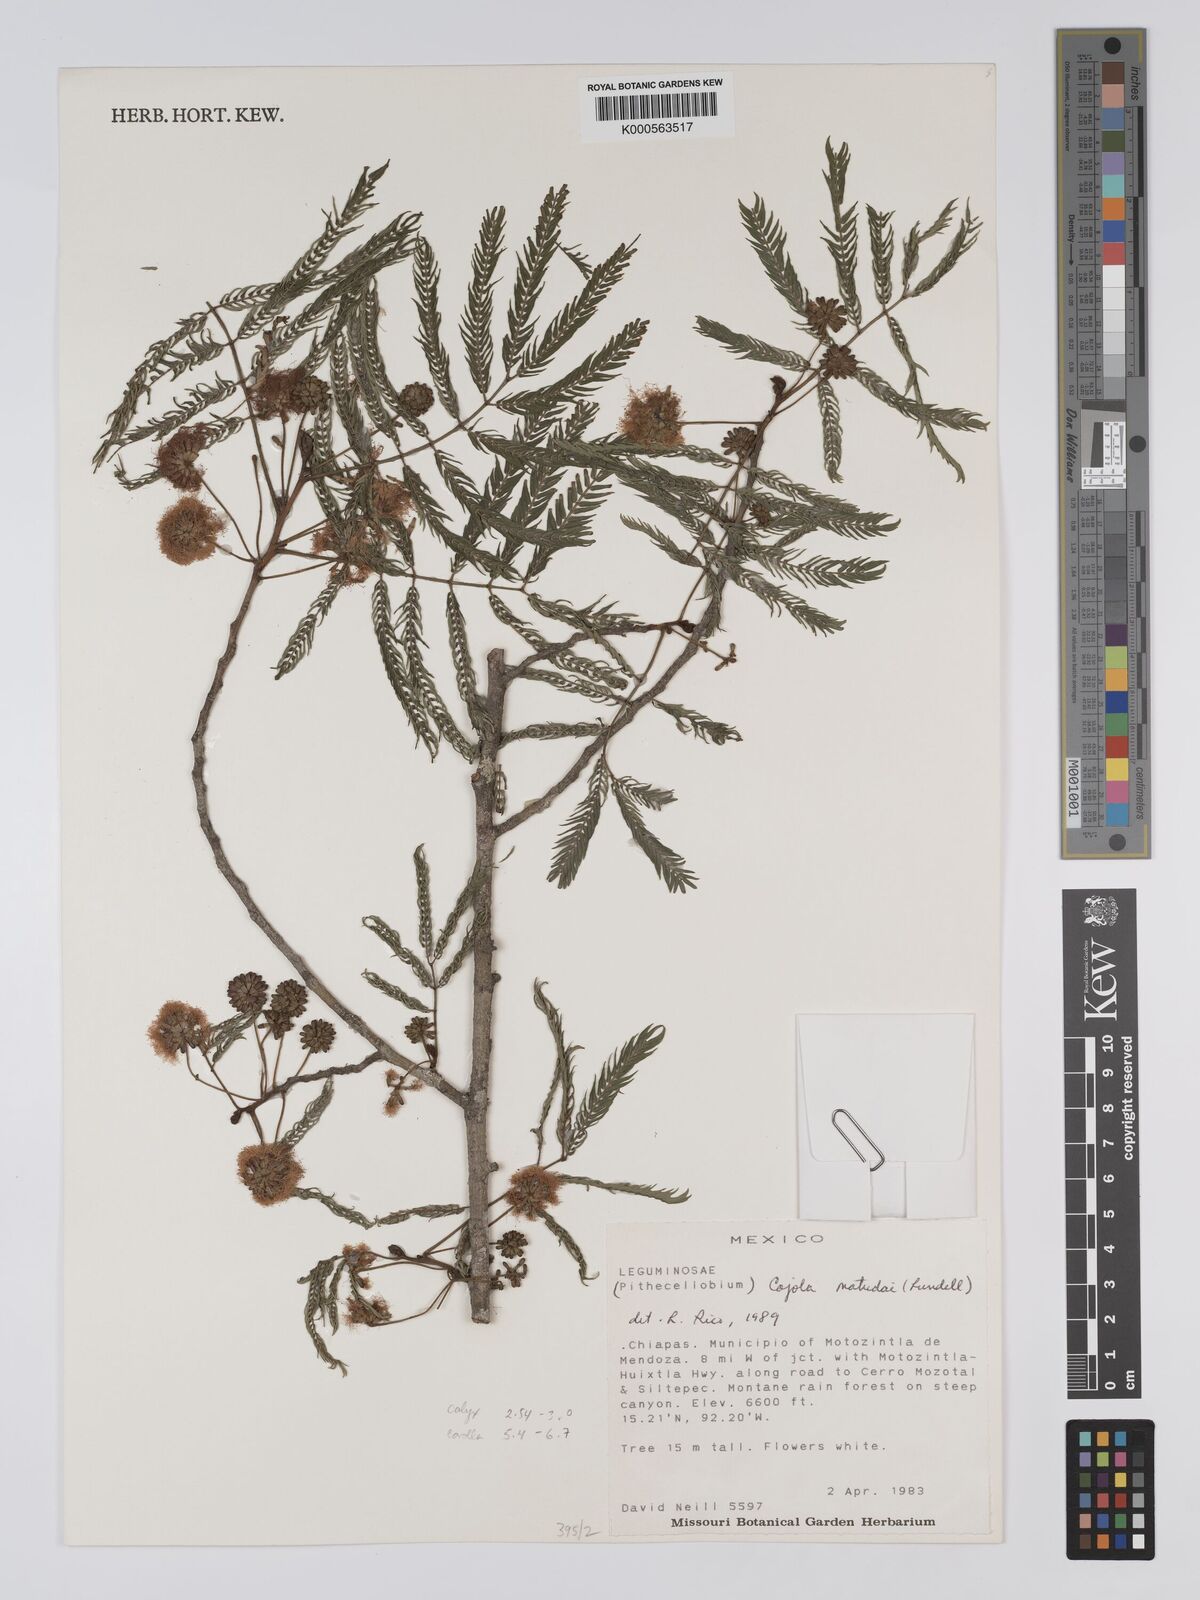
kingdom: Plantae
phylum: Tracheophyta
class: Magnoliopsida
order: Fabales
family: Fabaceae
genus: Cojoba
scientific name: Cojoba arborea
